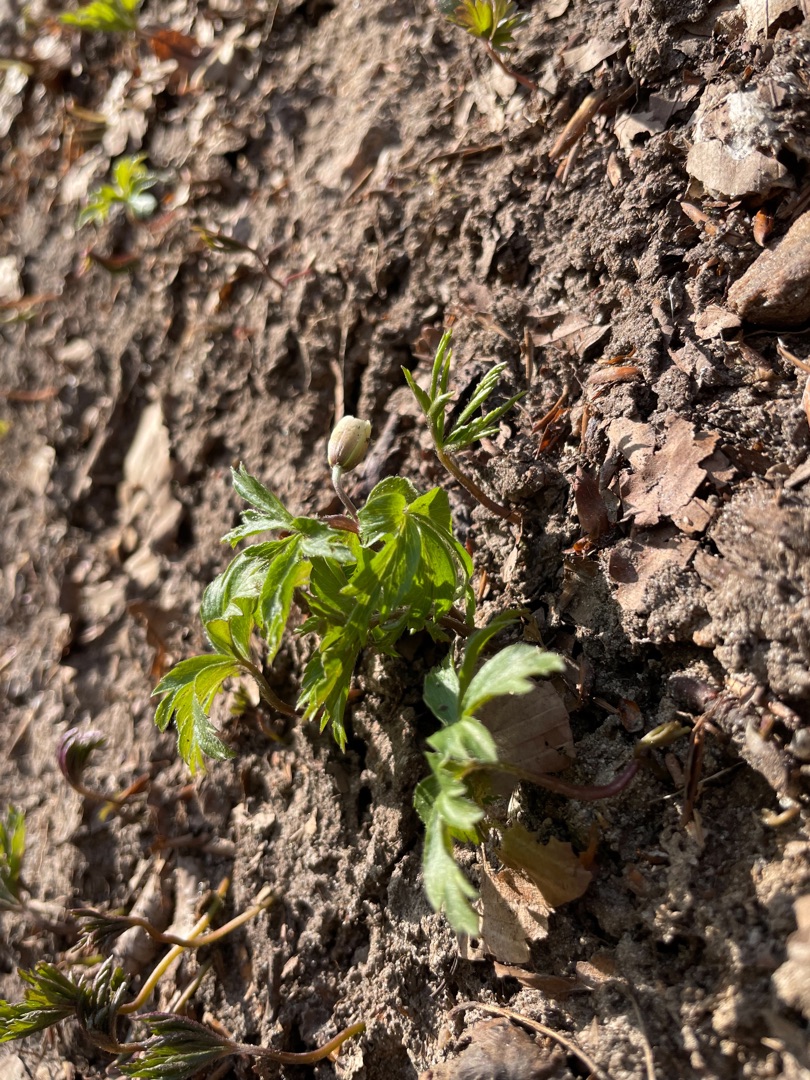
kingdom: Plantae
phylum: Tracheophyta
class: Magnoliopsida
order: Ranunculales
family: Ranunculaceae
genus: Anemone
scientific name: Anemone nemorosa
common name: Hvid anemone
